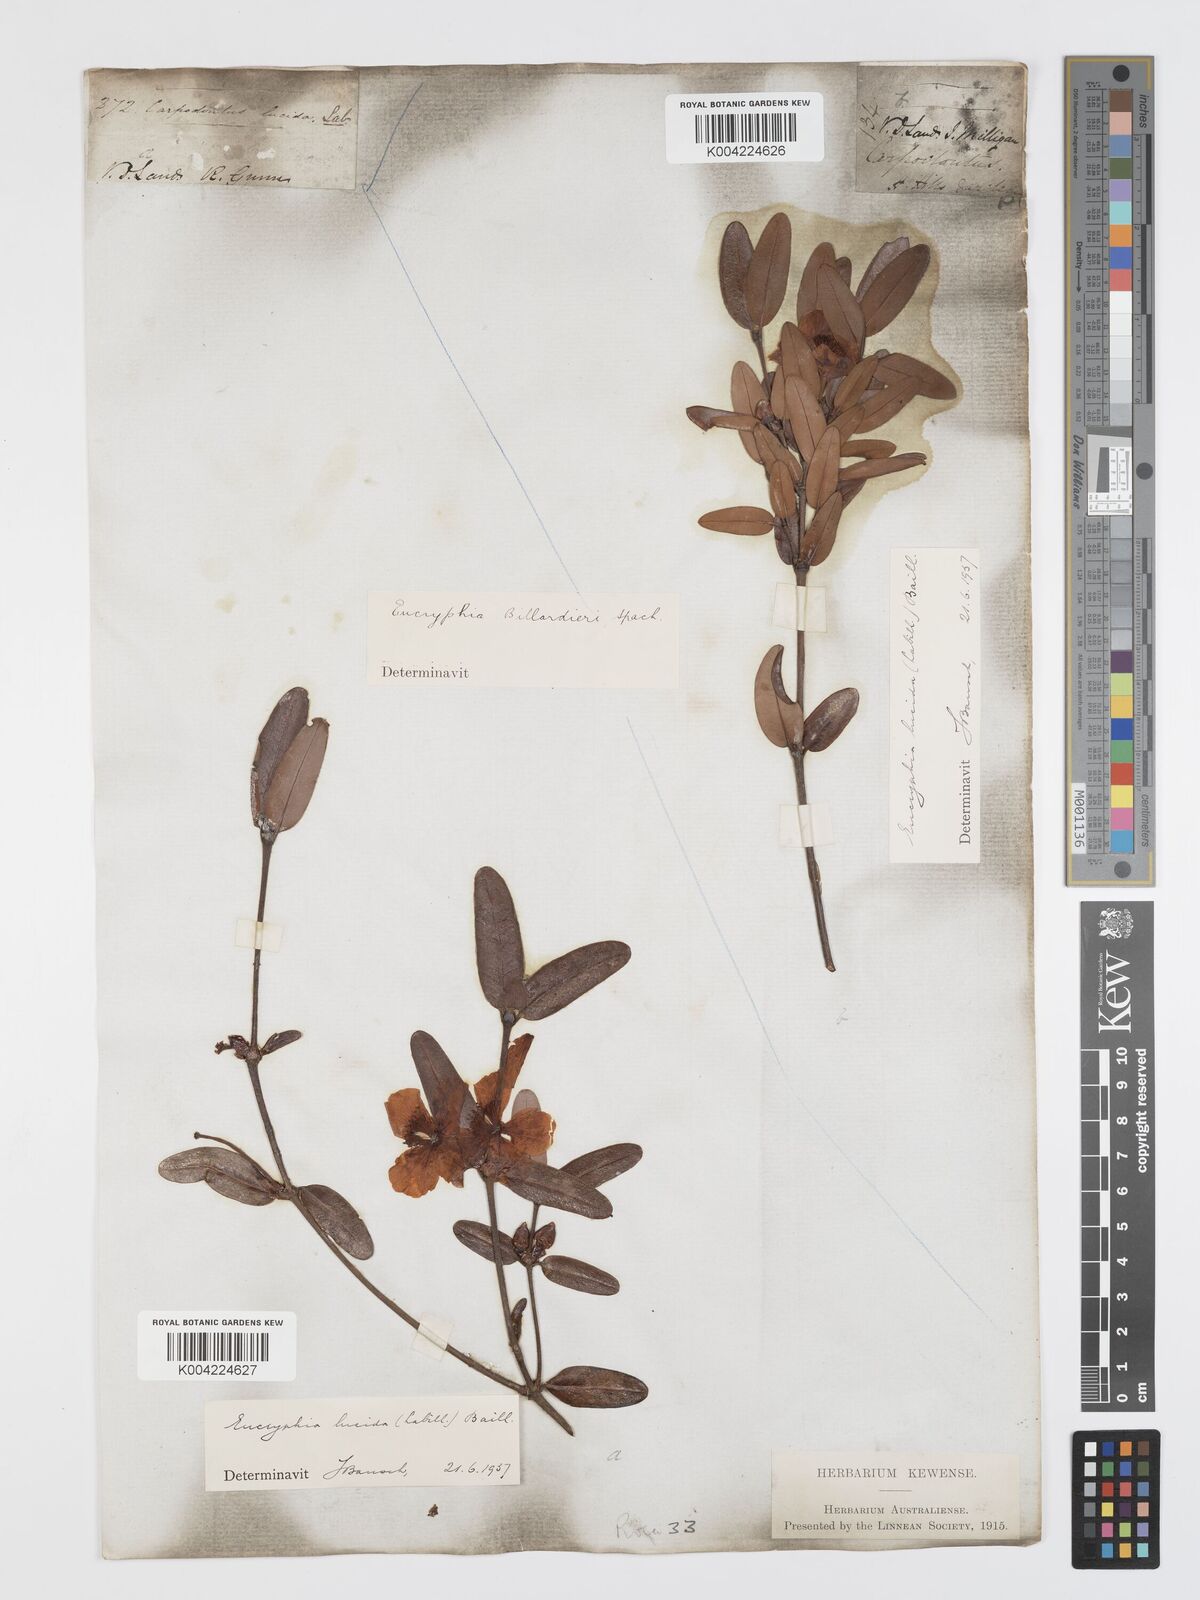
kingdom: Plantae
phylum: Tracheophyta
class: Magnoliopsida
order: Oxalidales
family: Cunoniaceae
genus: Eucryphia
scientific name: Eucryphia lucida
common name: Leatherwood
